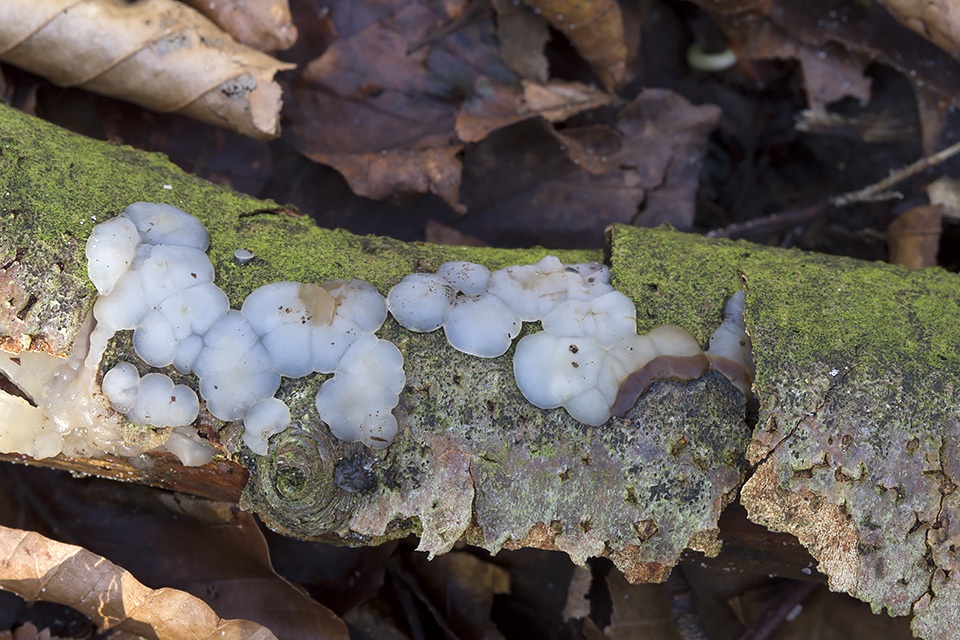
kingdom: Fungi
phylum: Basidiomycota
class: Agaricomycetes
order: Auriculariales
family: Auriculariaceae
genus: Exidia
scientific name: Exidia thuretiana
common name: hvidlig bævretop
